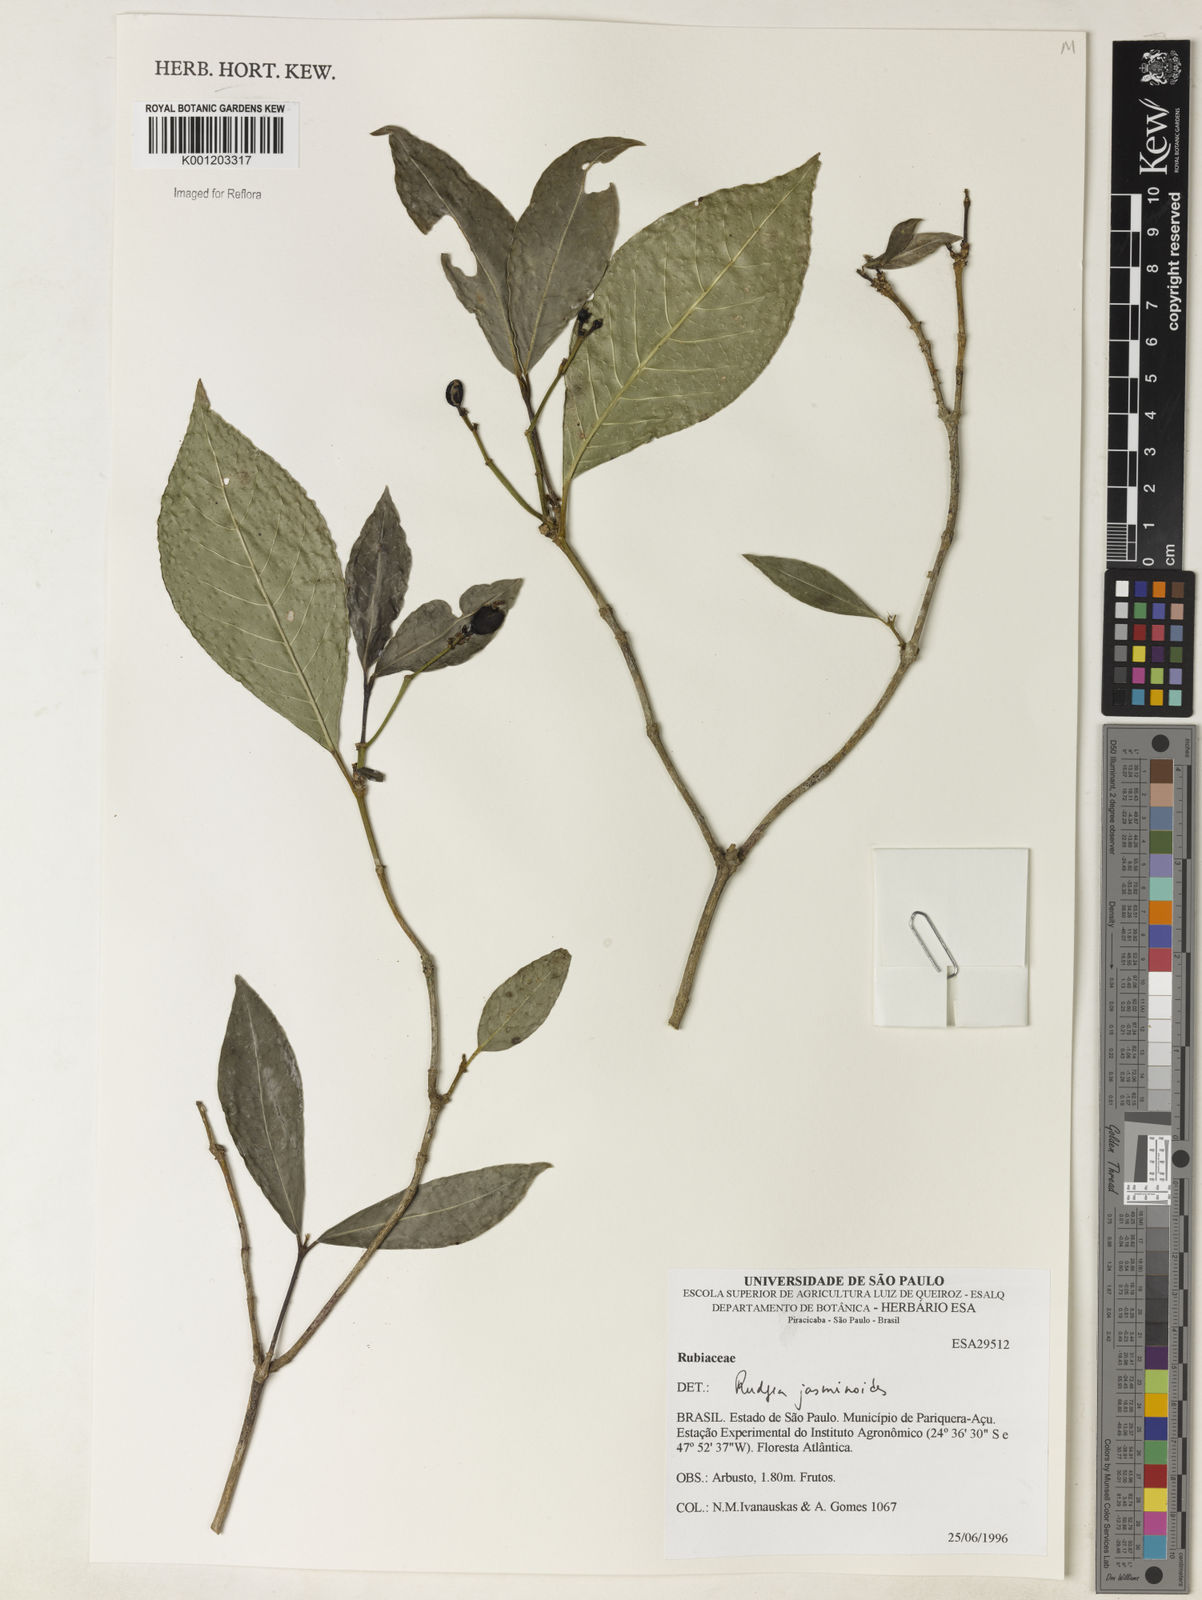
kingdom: Plantae
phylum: Tracheophyta
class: Magnoliopsida
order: Gentianales
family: Rubiaceae
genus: Rudgea
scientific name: Rudgea
